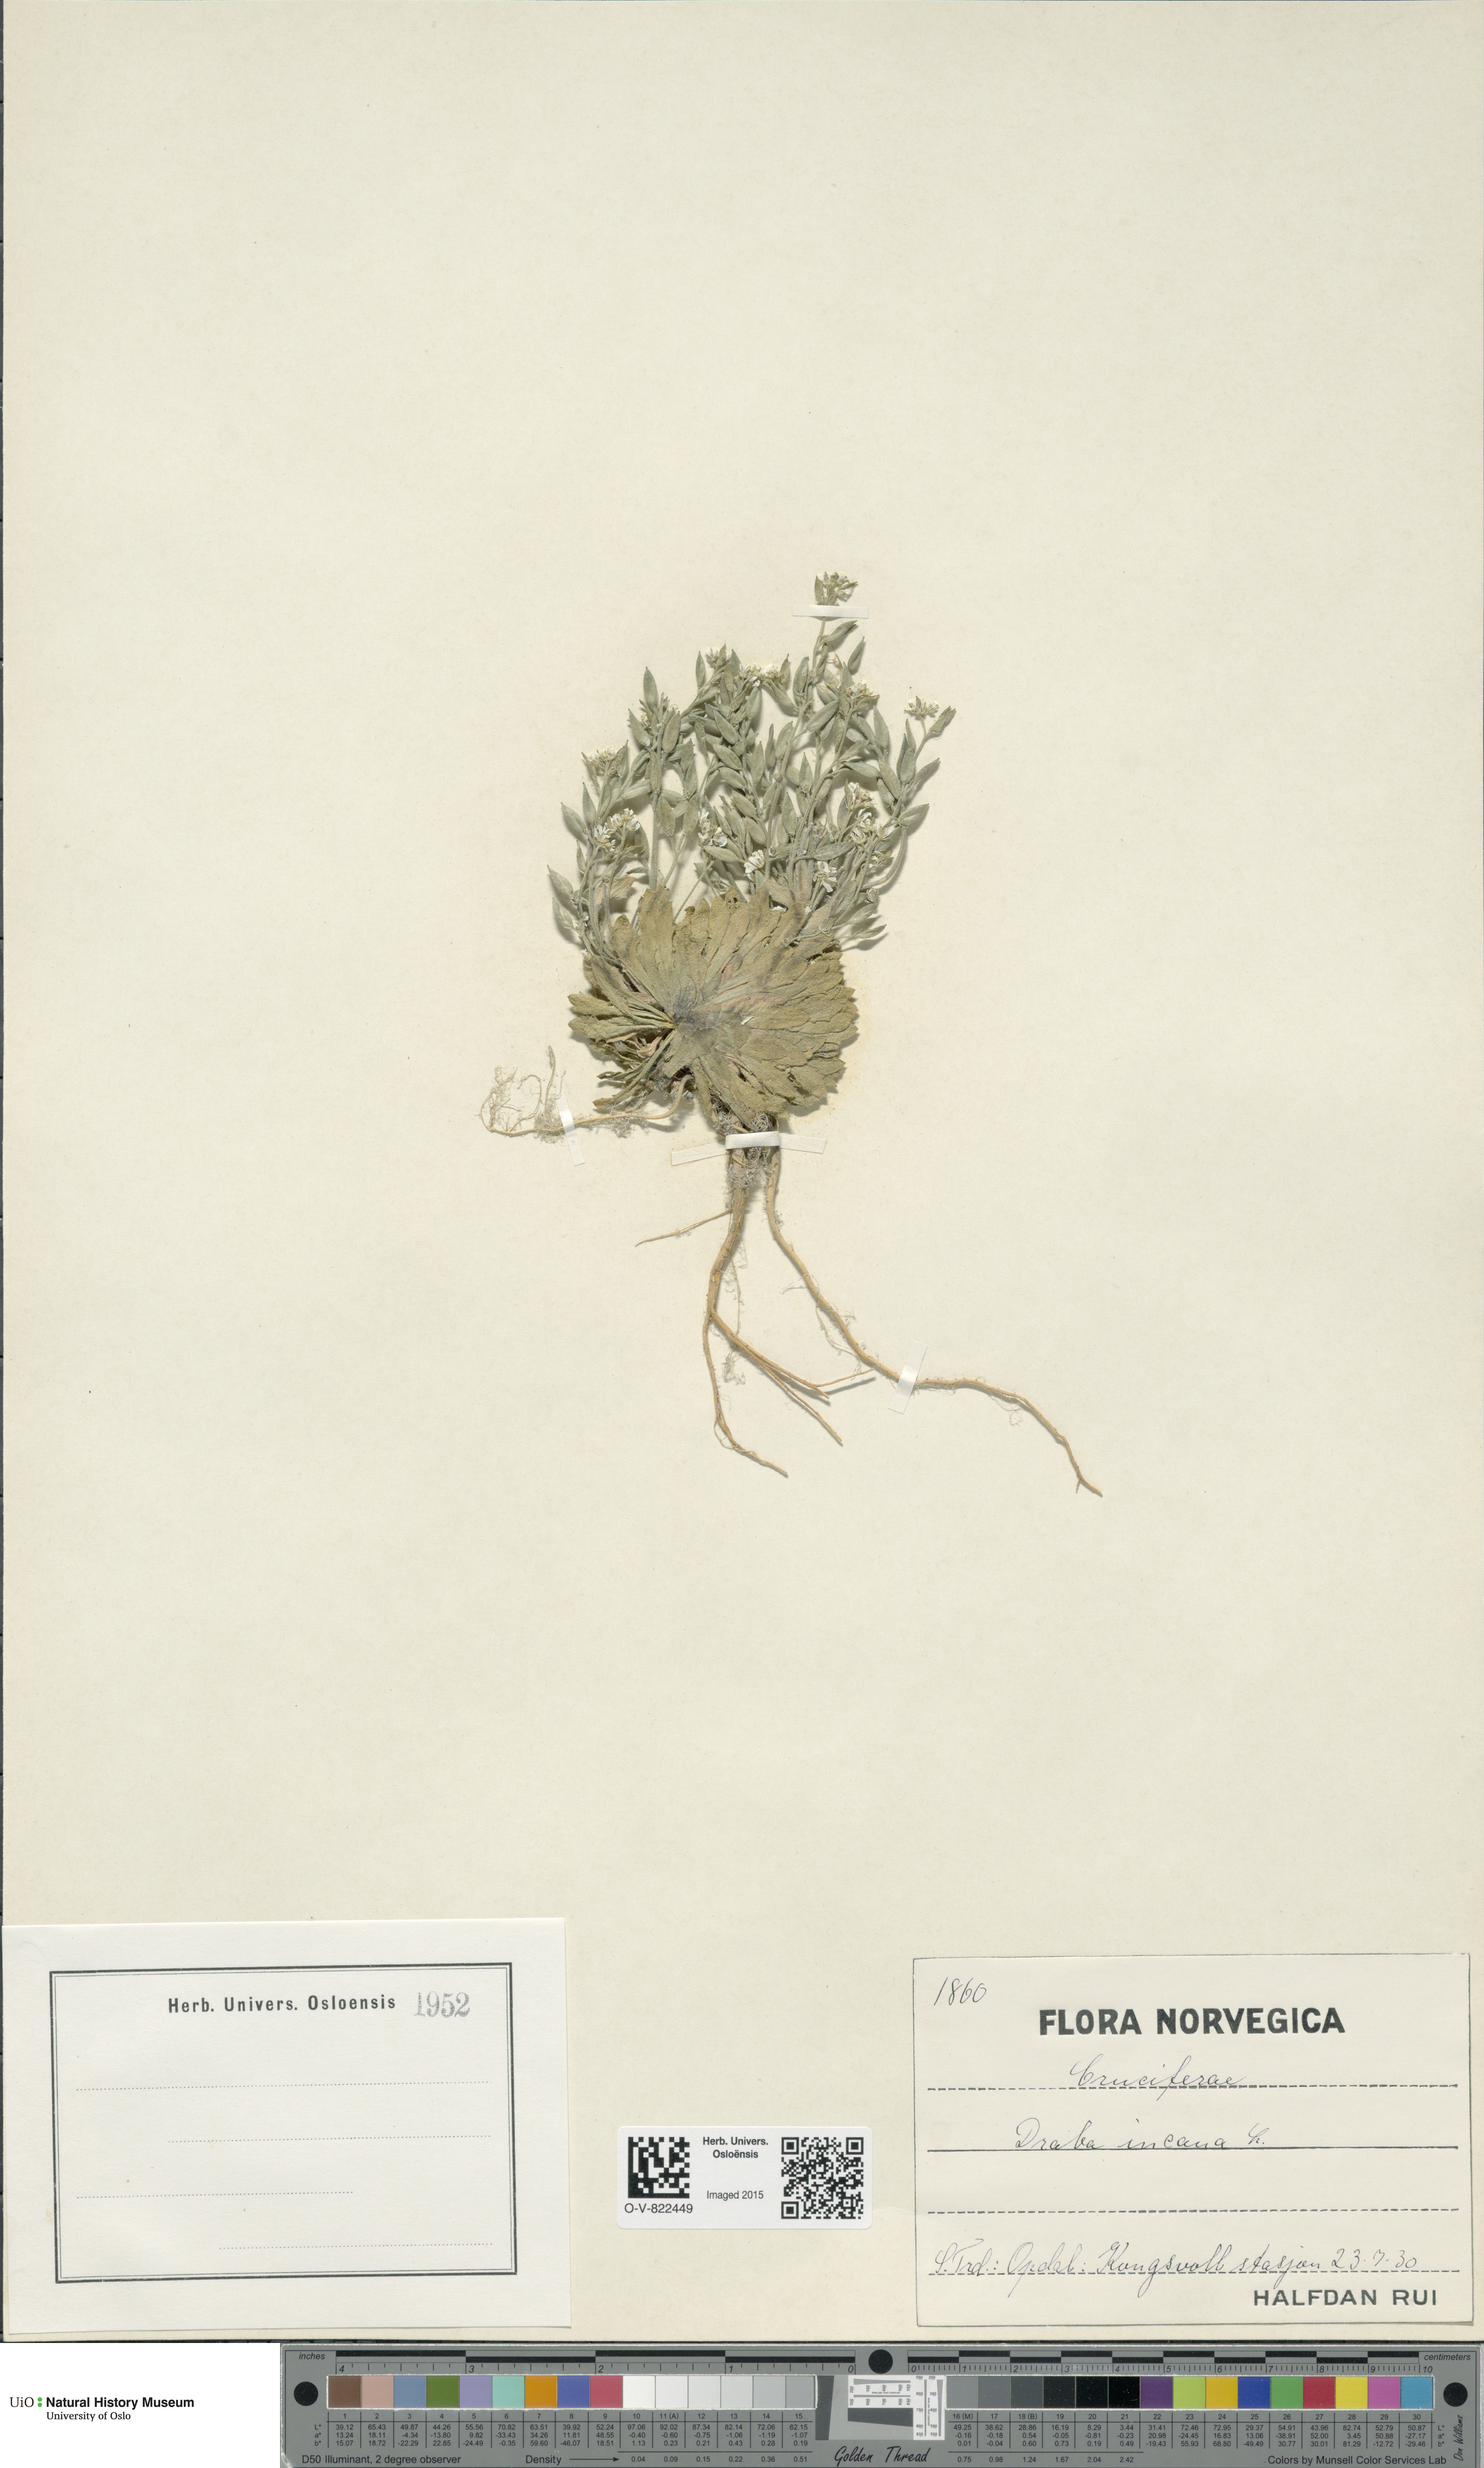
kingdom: Plantae
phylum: Tracheophyta
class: Magnoliopsida
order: Brassicales
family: Brassicaceae
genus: Draba
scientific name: Draba incana
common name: Hoary whitlow-grass
